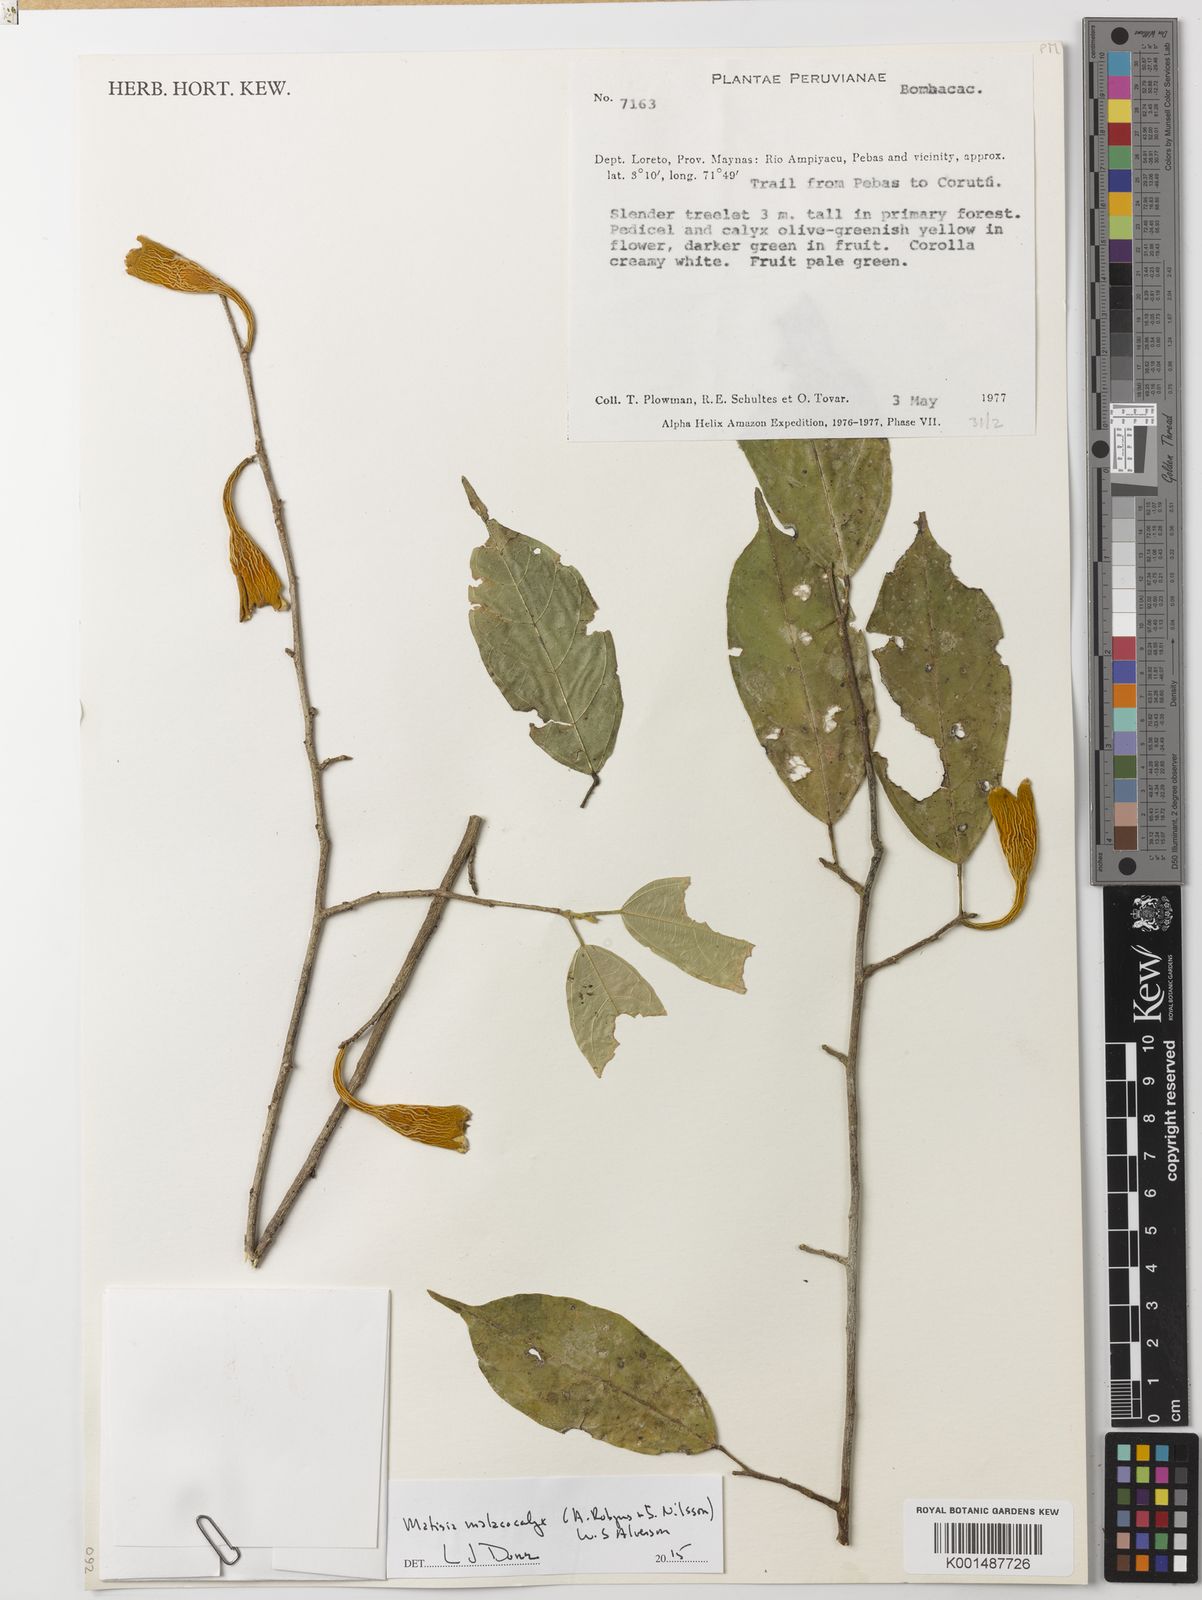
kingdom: Plantae
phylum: Tracheophyta
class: Magnoliopsida
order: Malvales
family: Malvaceae
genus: Matisia
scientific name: Matisia malacocalyx
